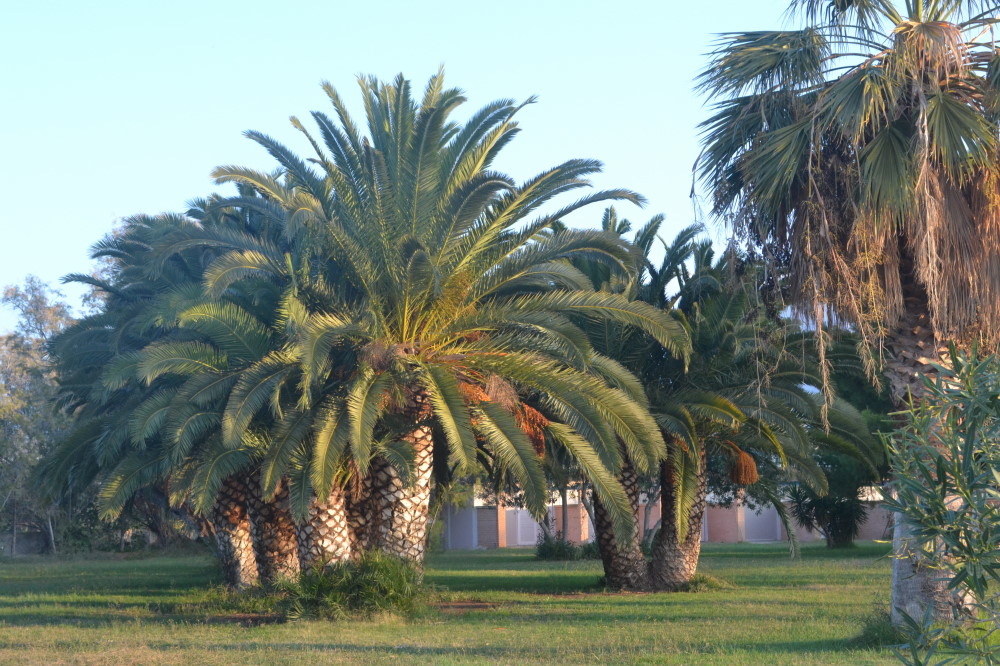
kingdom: Plantae
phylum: Tracheophyta
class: Liliopsida
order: Arecales
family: Arecaceae
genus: Washingtonia
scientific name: Washingtonia robusta
